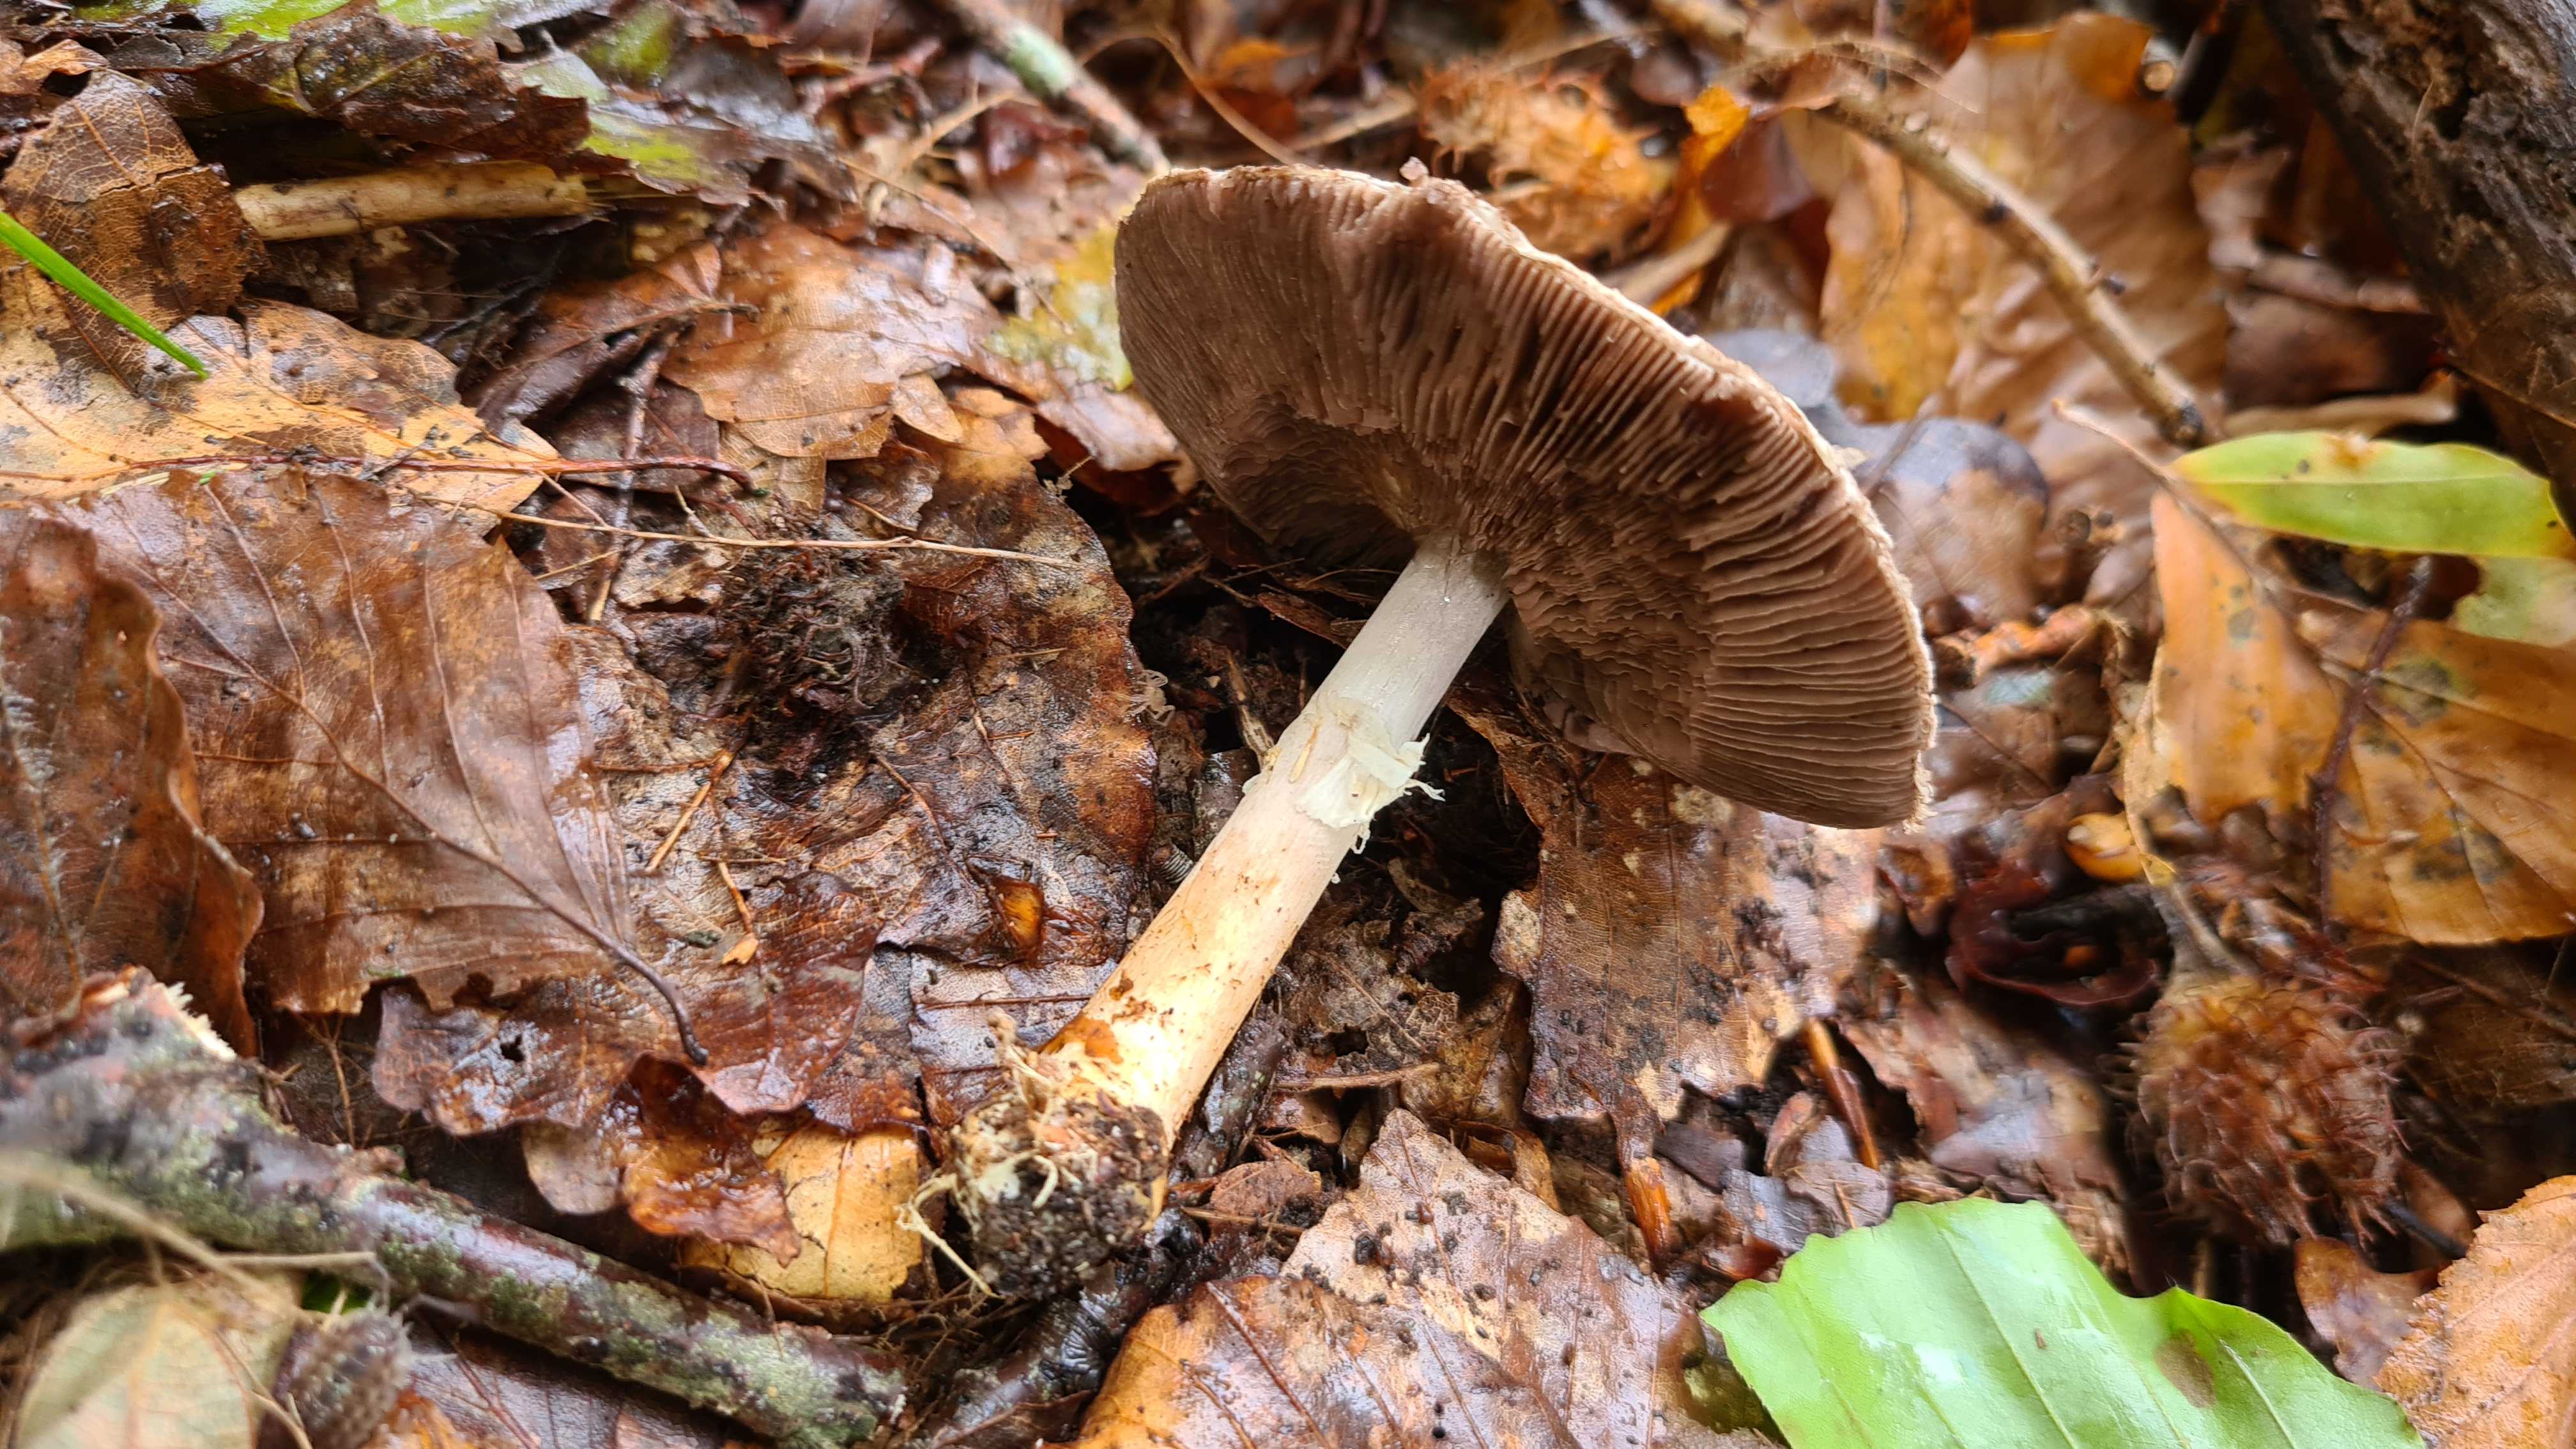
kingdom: Fungi
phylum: Basidiomycota
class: Agaricomycetes
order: Agaricales
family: Agaricaceae
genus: Agaricus
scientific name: Agaricus dulcidulus
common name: blegrød champignon
